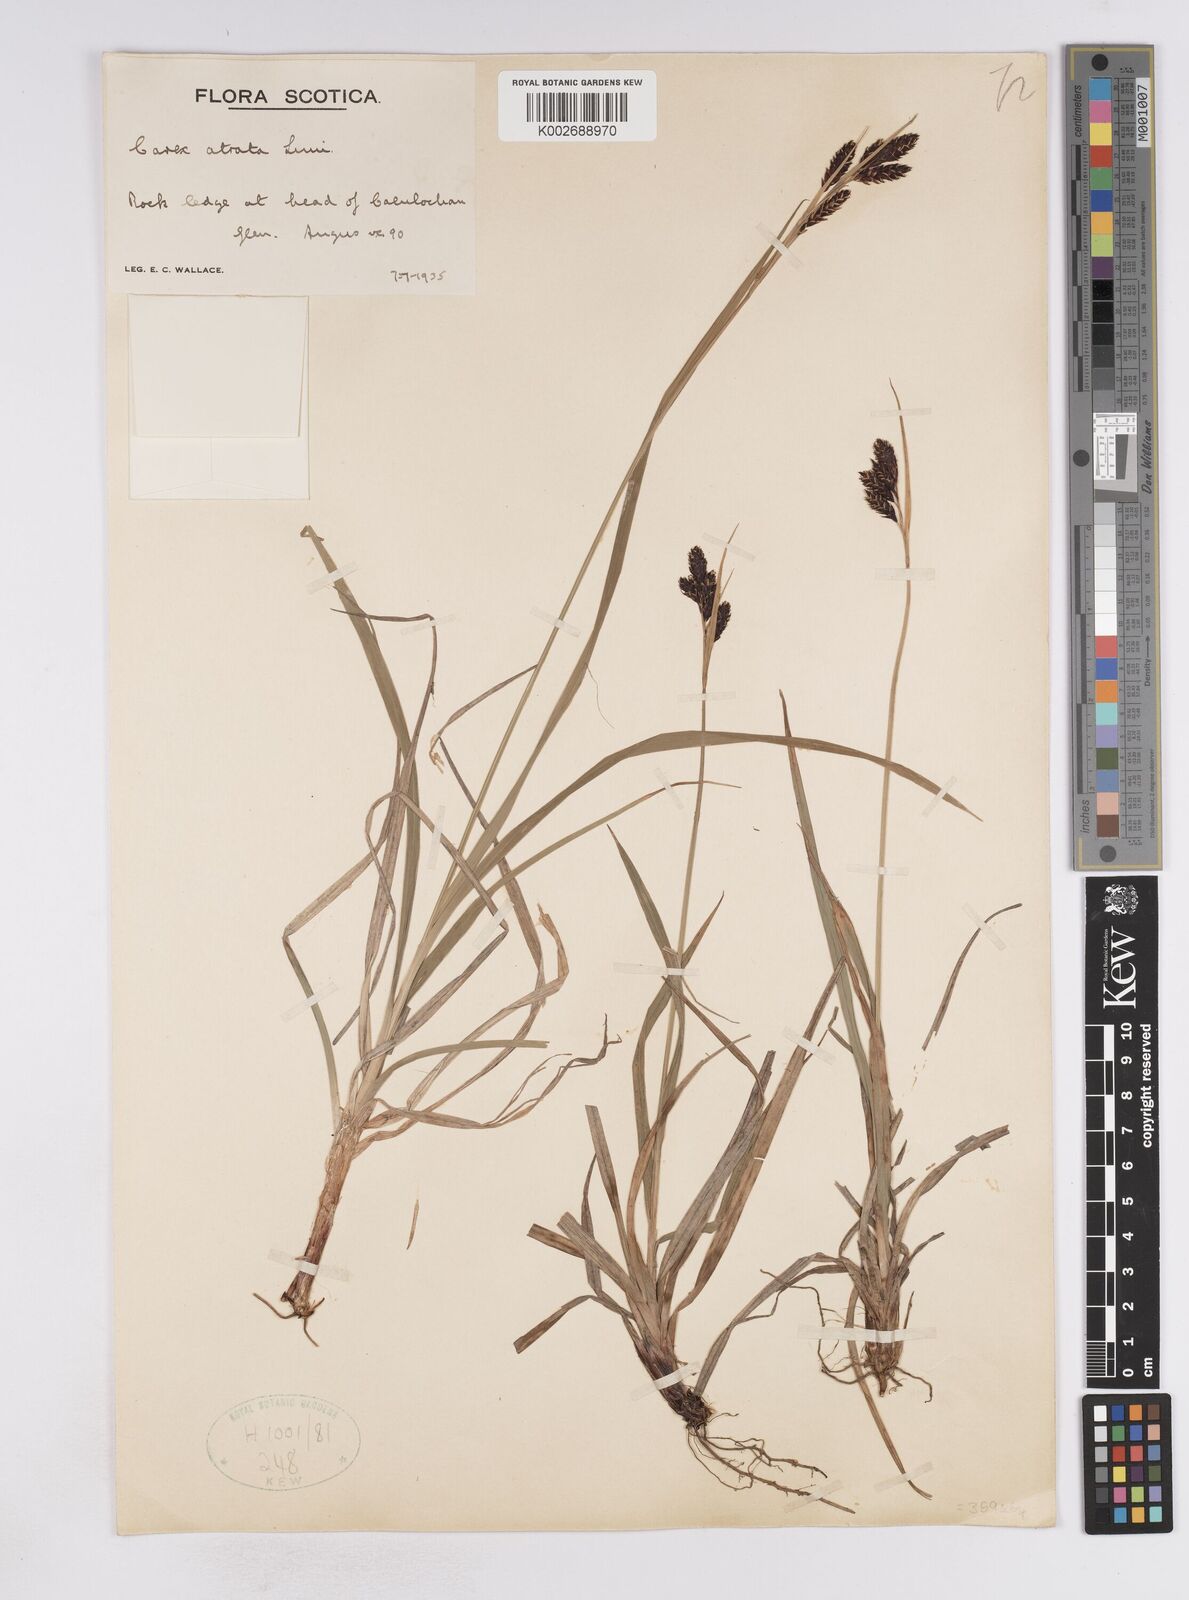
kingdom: Plantae
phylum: Tracheophyta
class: Liliopsida
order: Poales
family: Cyperaceae
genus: Carex
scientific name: Carex atrata
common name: Black alpine sedge
